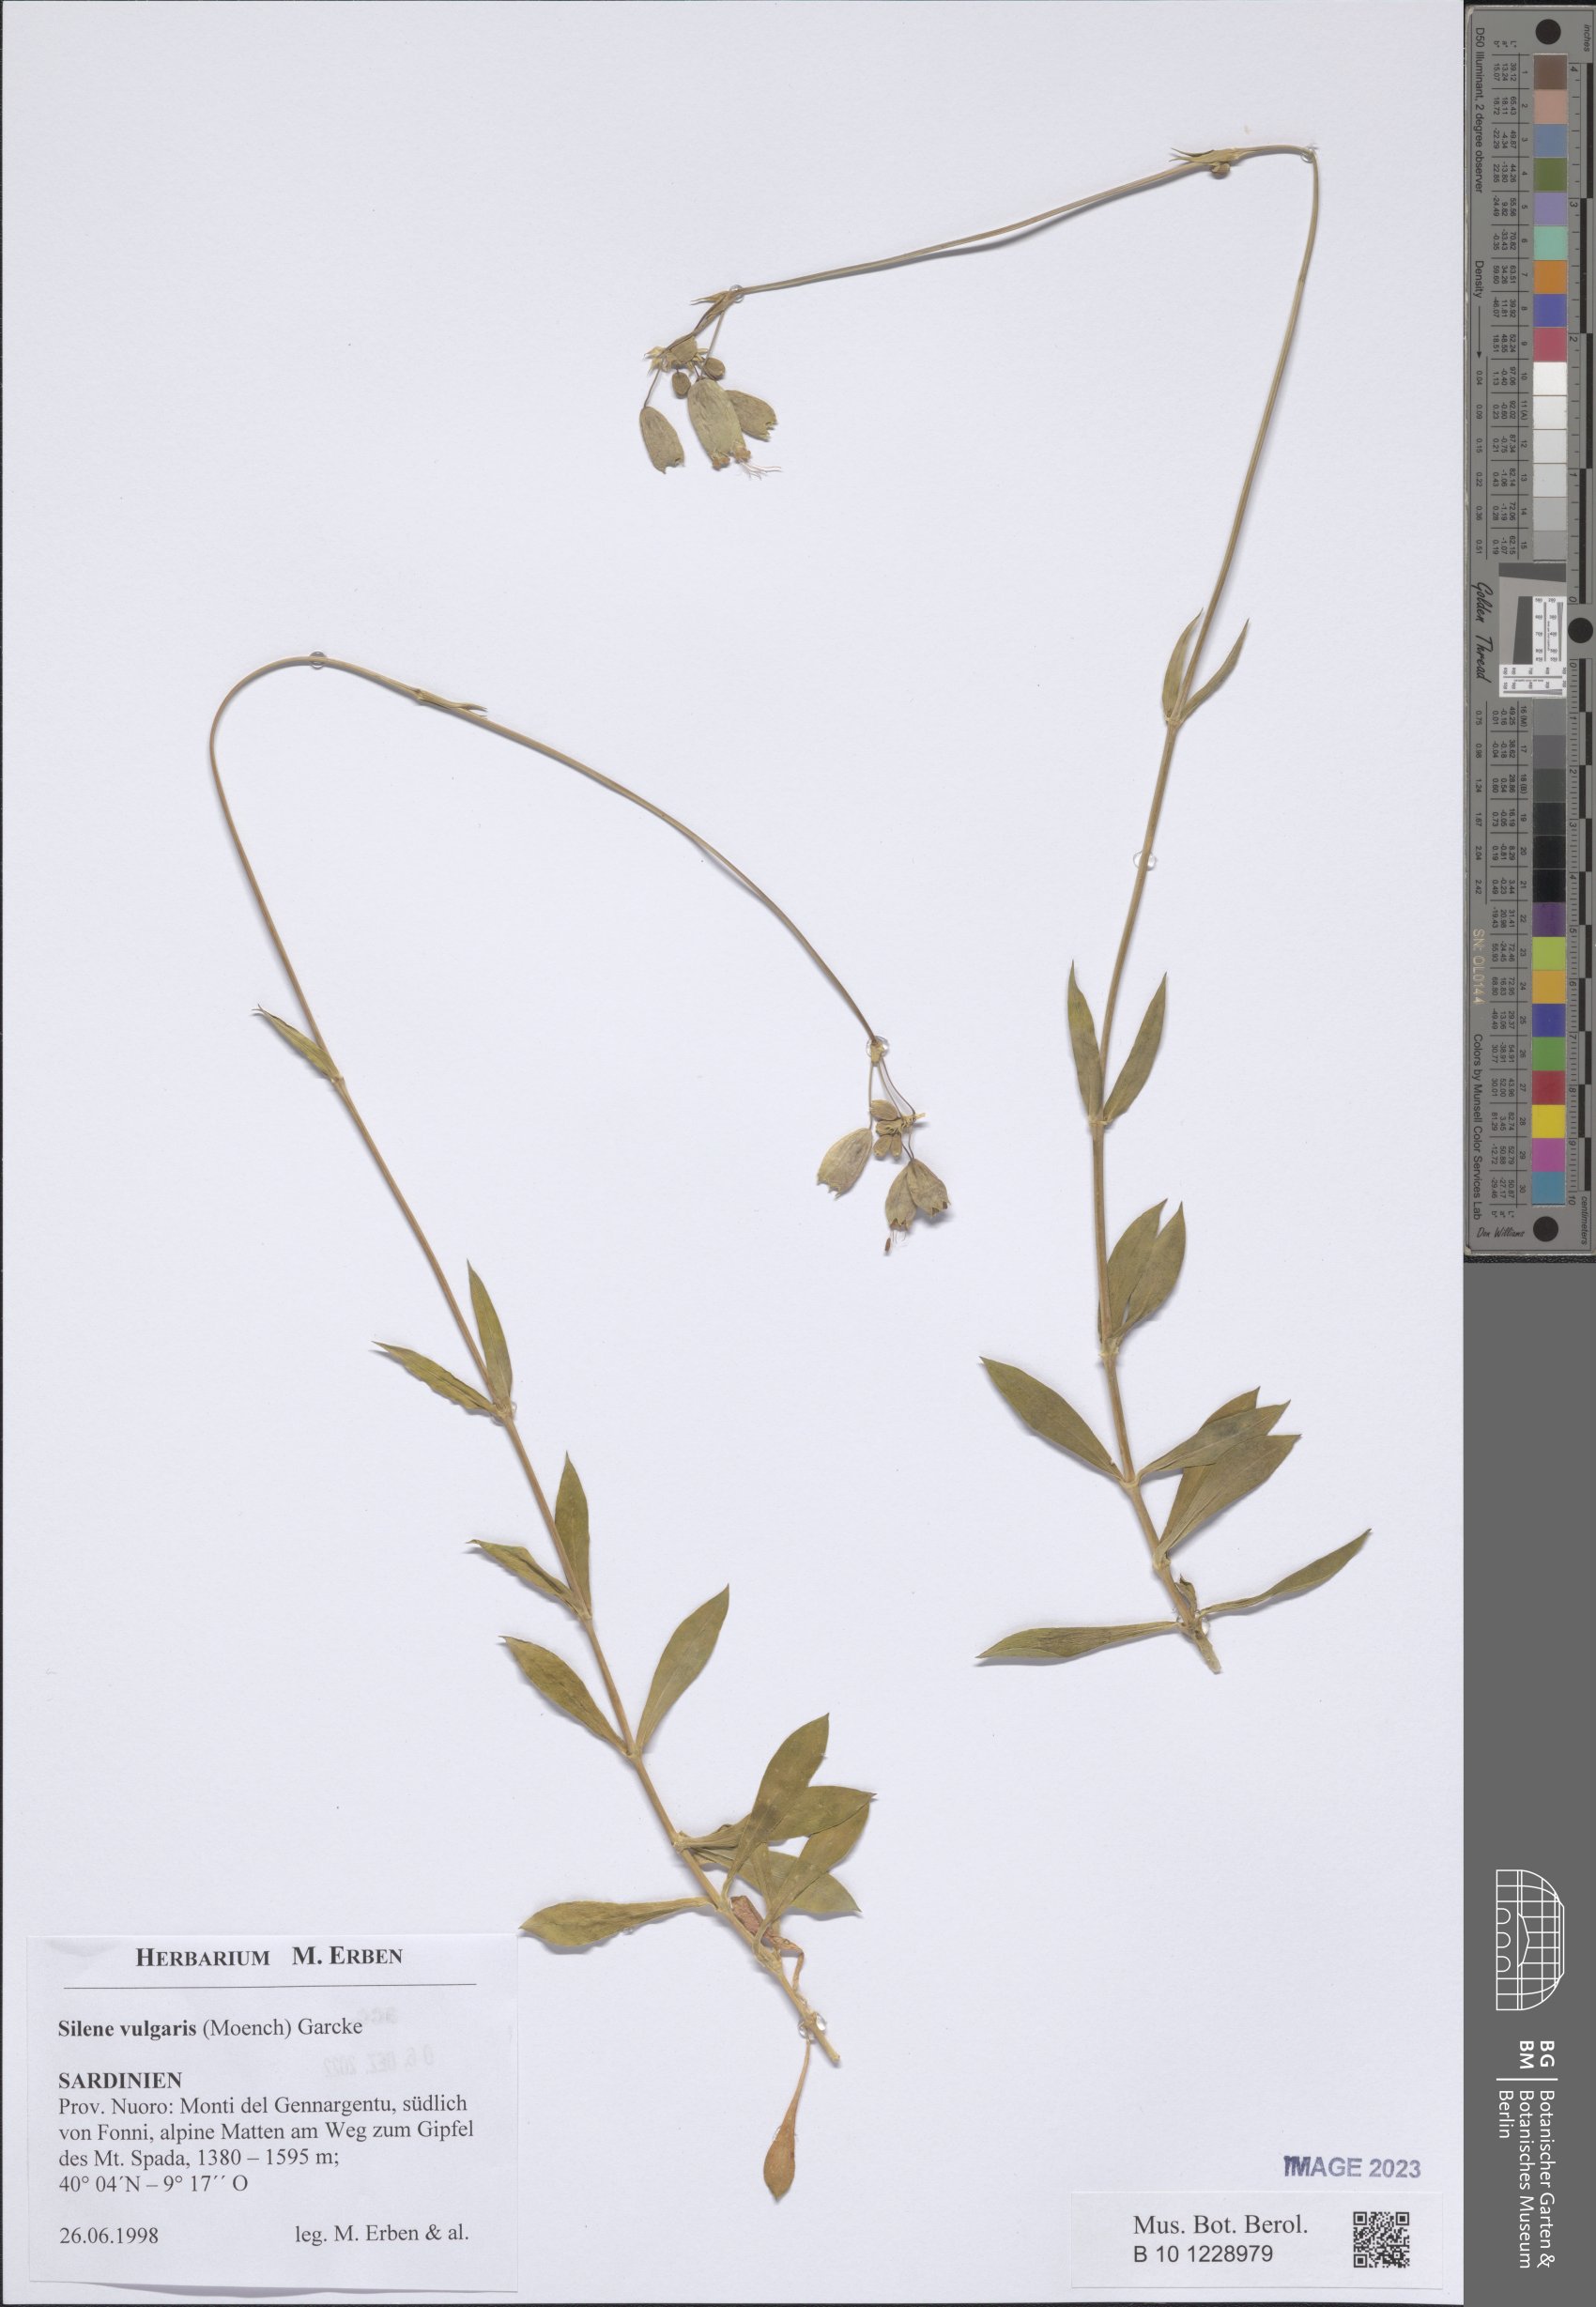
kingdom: Plantae
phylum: Tracheophyta
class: Magnoliopsida
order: Caryophyllales
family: Caryophyllaceae
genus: Silene
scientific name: Silene vulgaris
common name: Bladder campion
